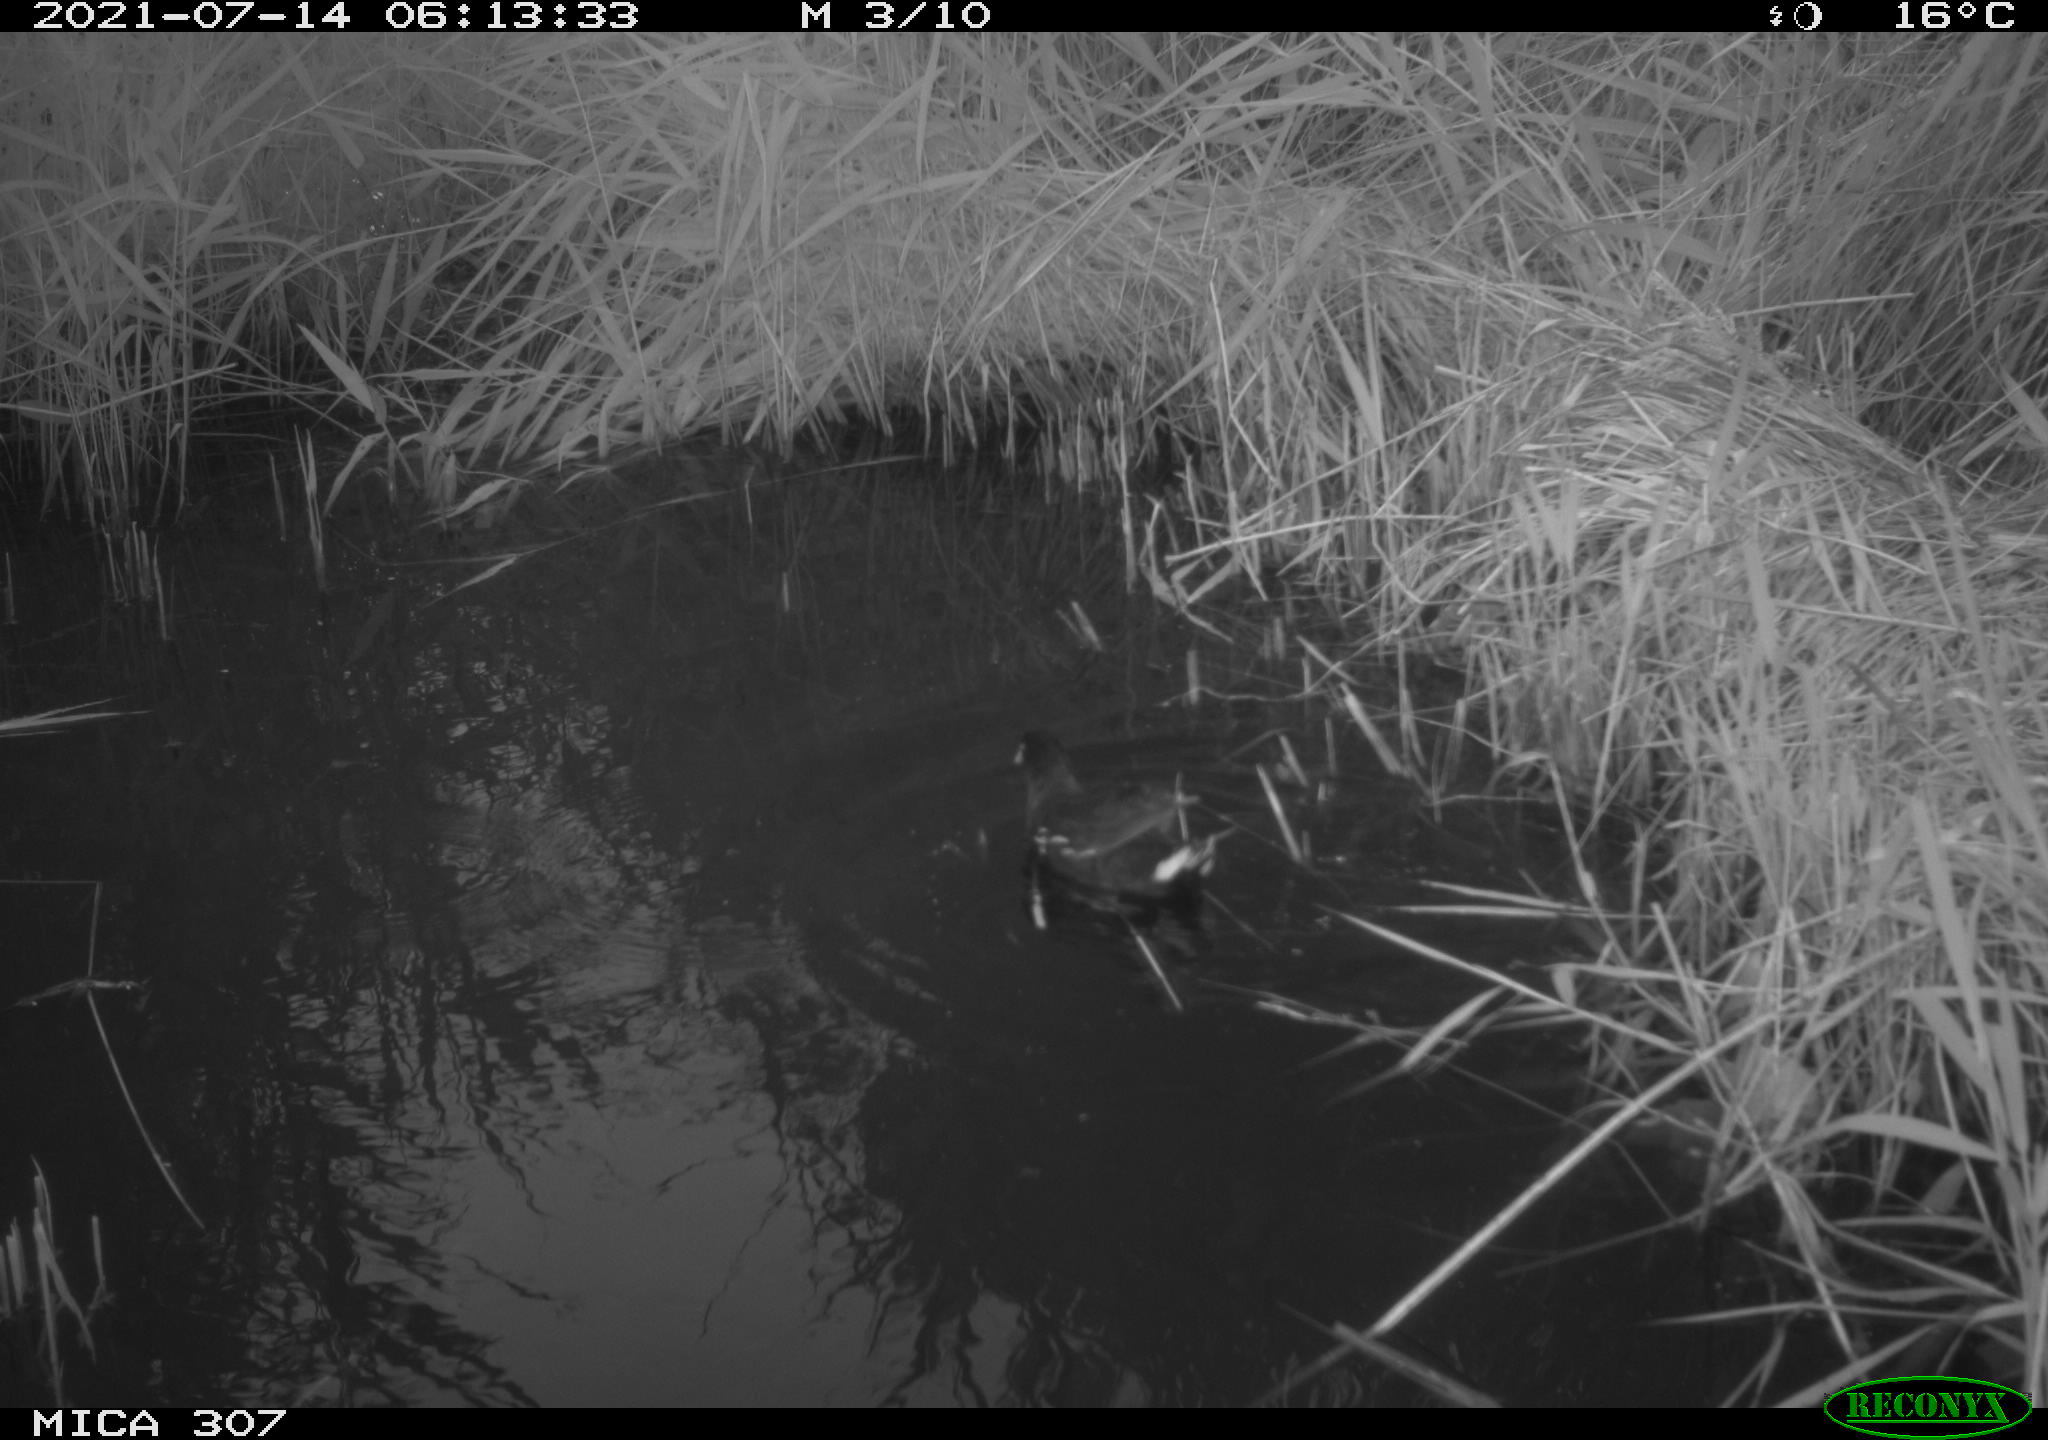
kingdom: Animalia
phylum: Chordata
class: Aves
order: Gruiformes
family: Rallidae
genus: Gallinula
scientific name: Gallinula chloropus
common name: Common moorhen
